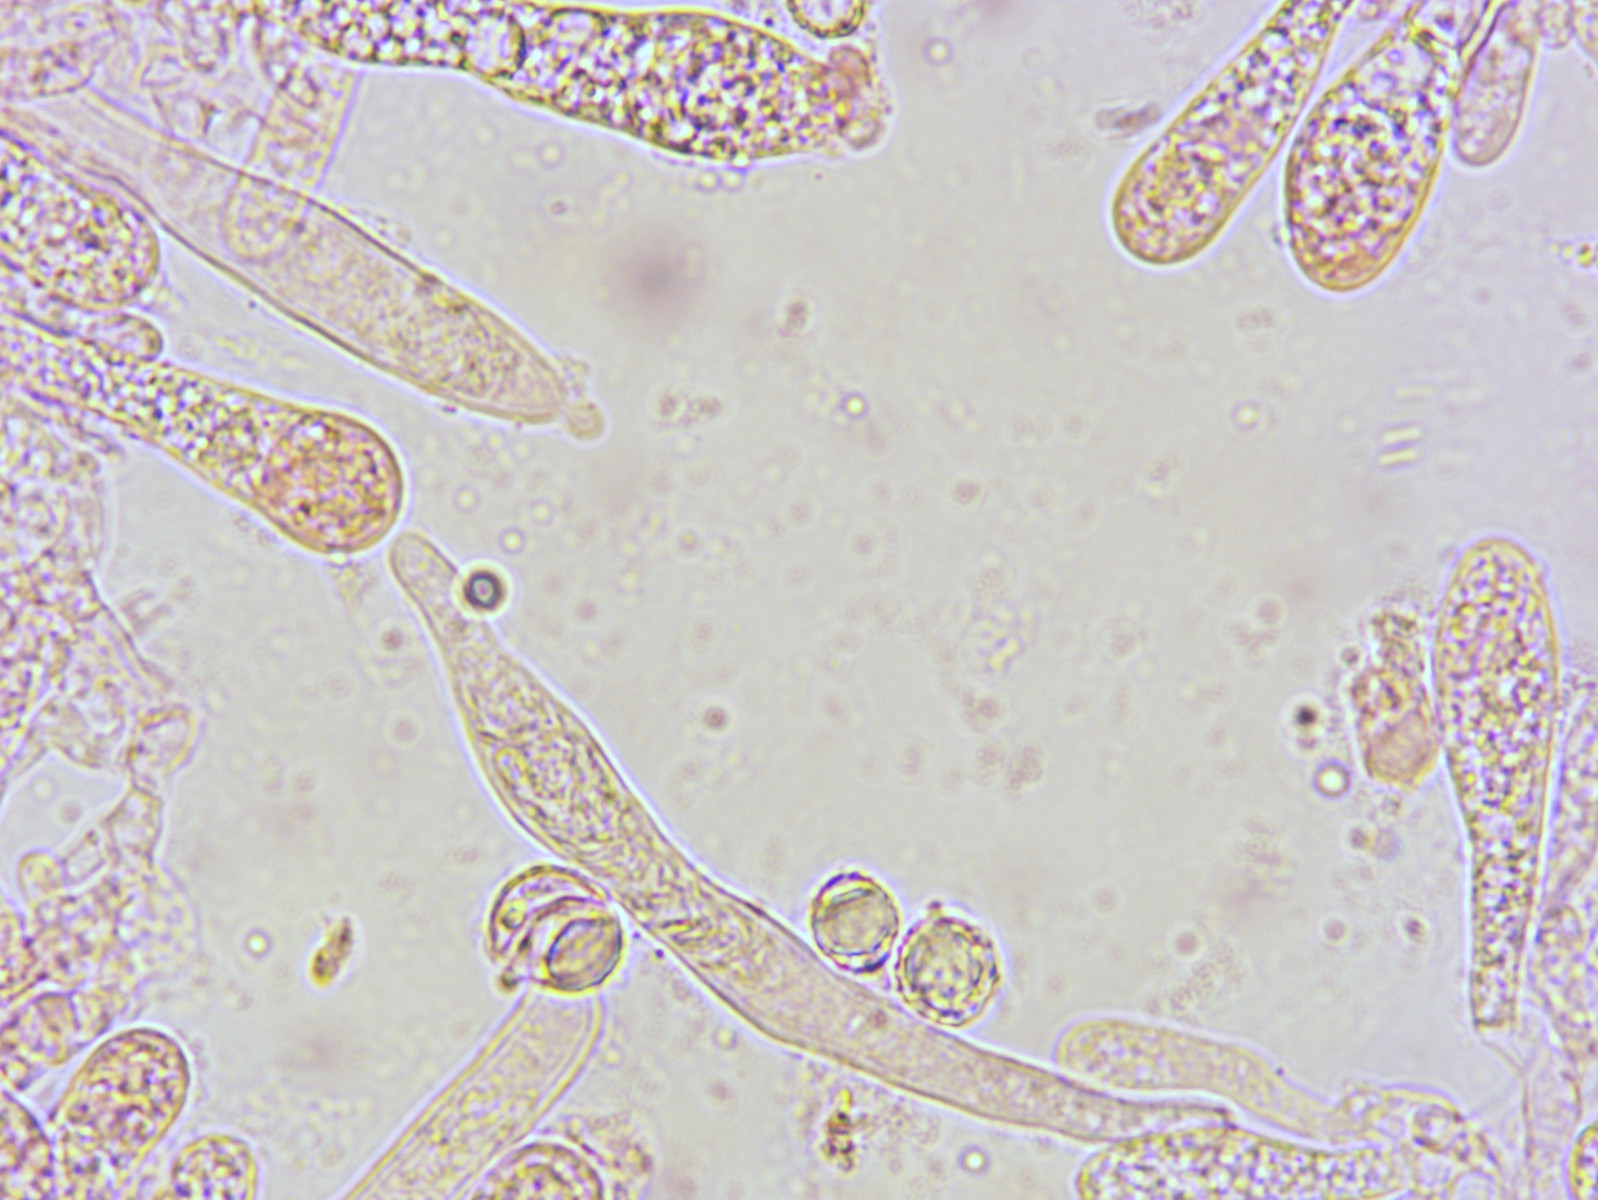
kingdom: Fungi
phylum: Basidiomycota
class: Agaricomycetes
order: Russulales
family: Russulaceae
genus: Russula
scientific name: Russula ionochlora
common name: violetgrøn skørhat
